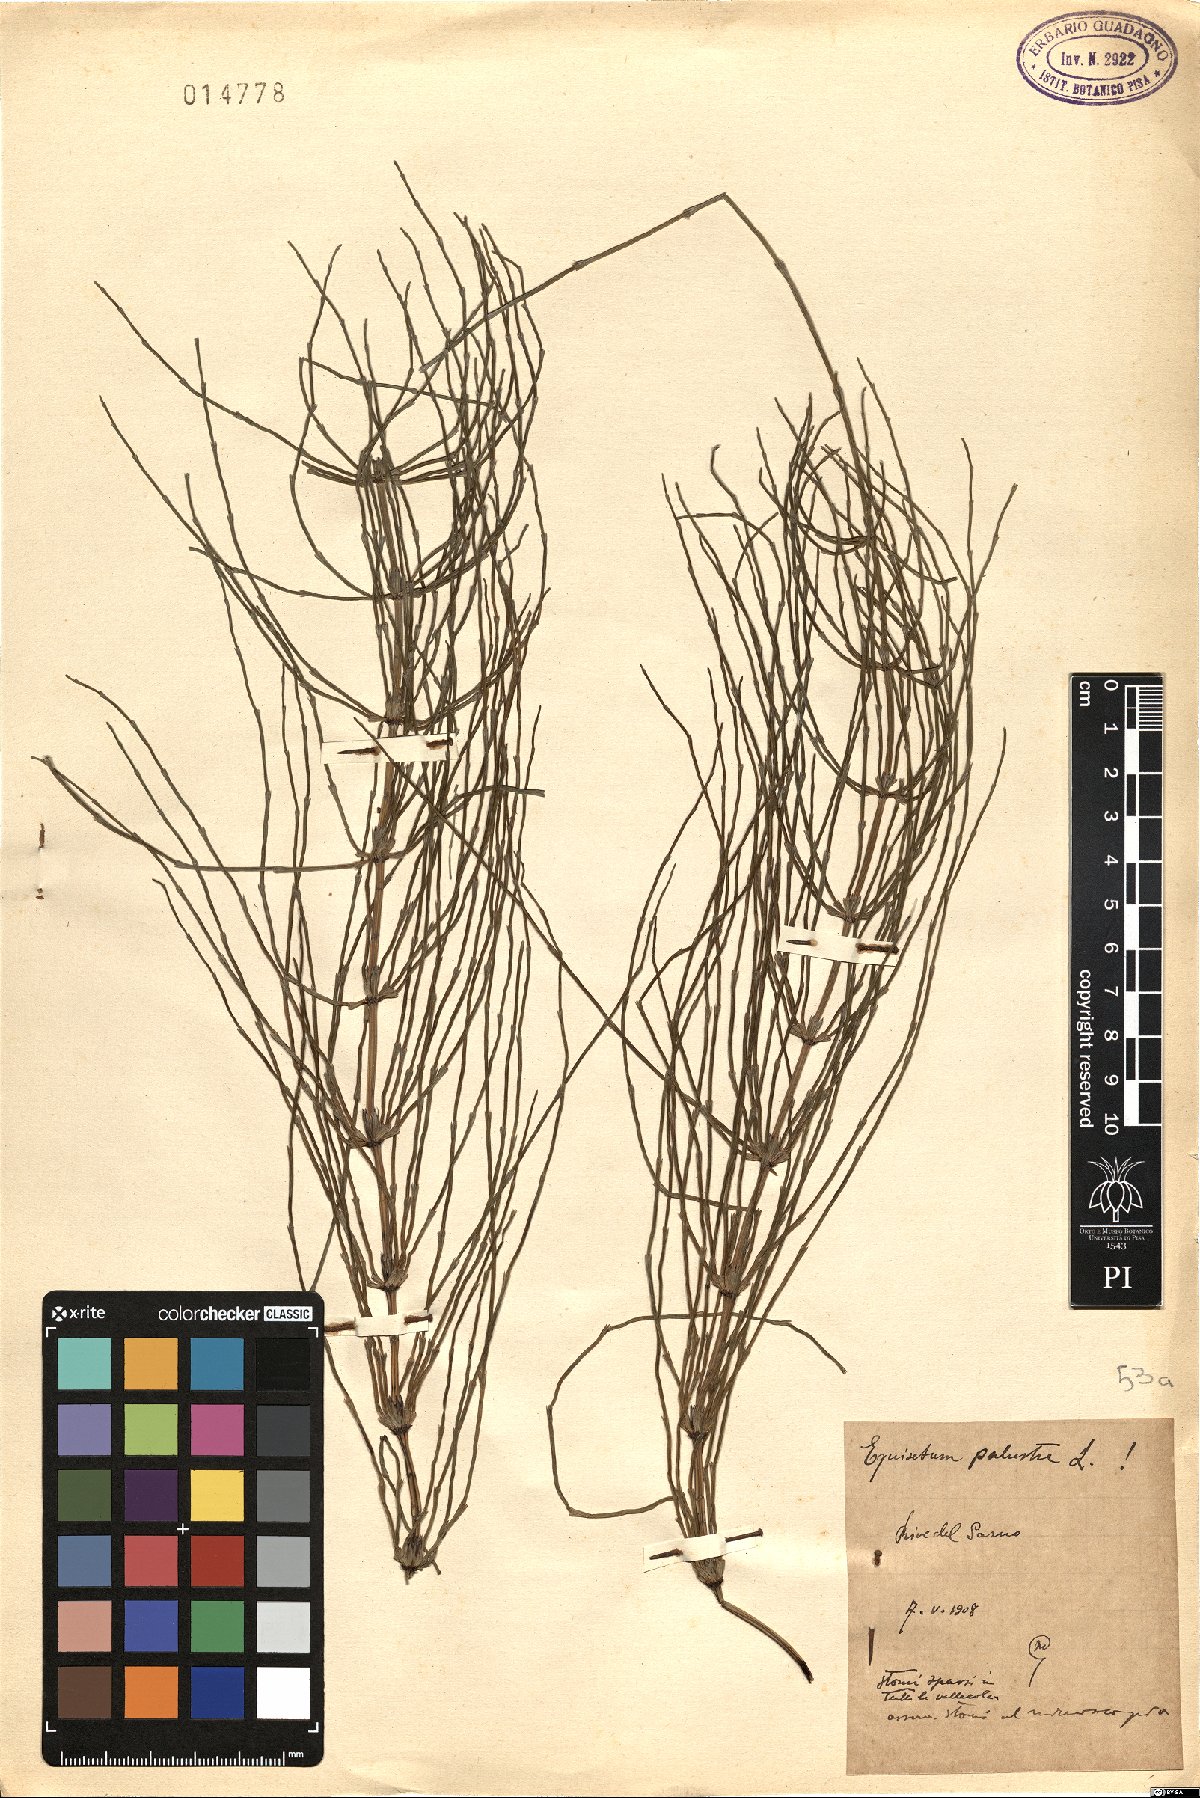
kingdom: Plantae
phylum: Tracheophyta
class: Polypodiopsida
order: Equisetales
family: Equisetaceae
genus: Equisetum
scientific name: Equisetum palustre
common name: Marsh horsetail
